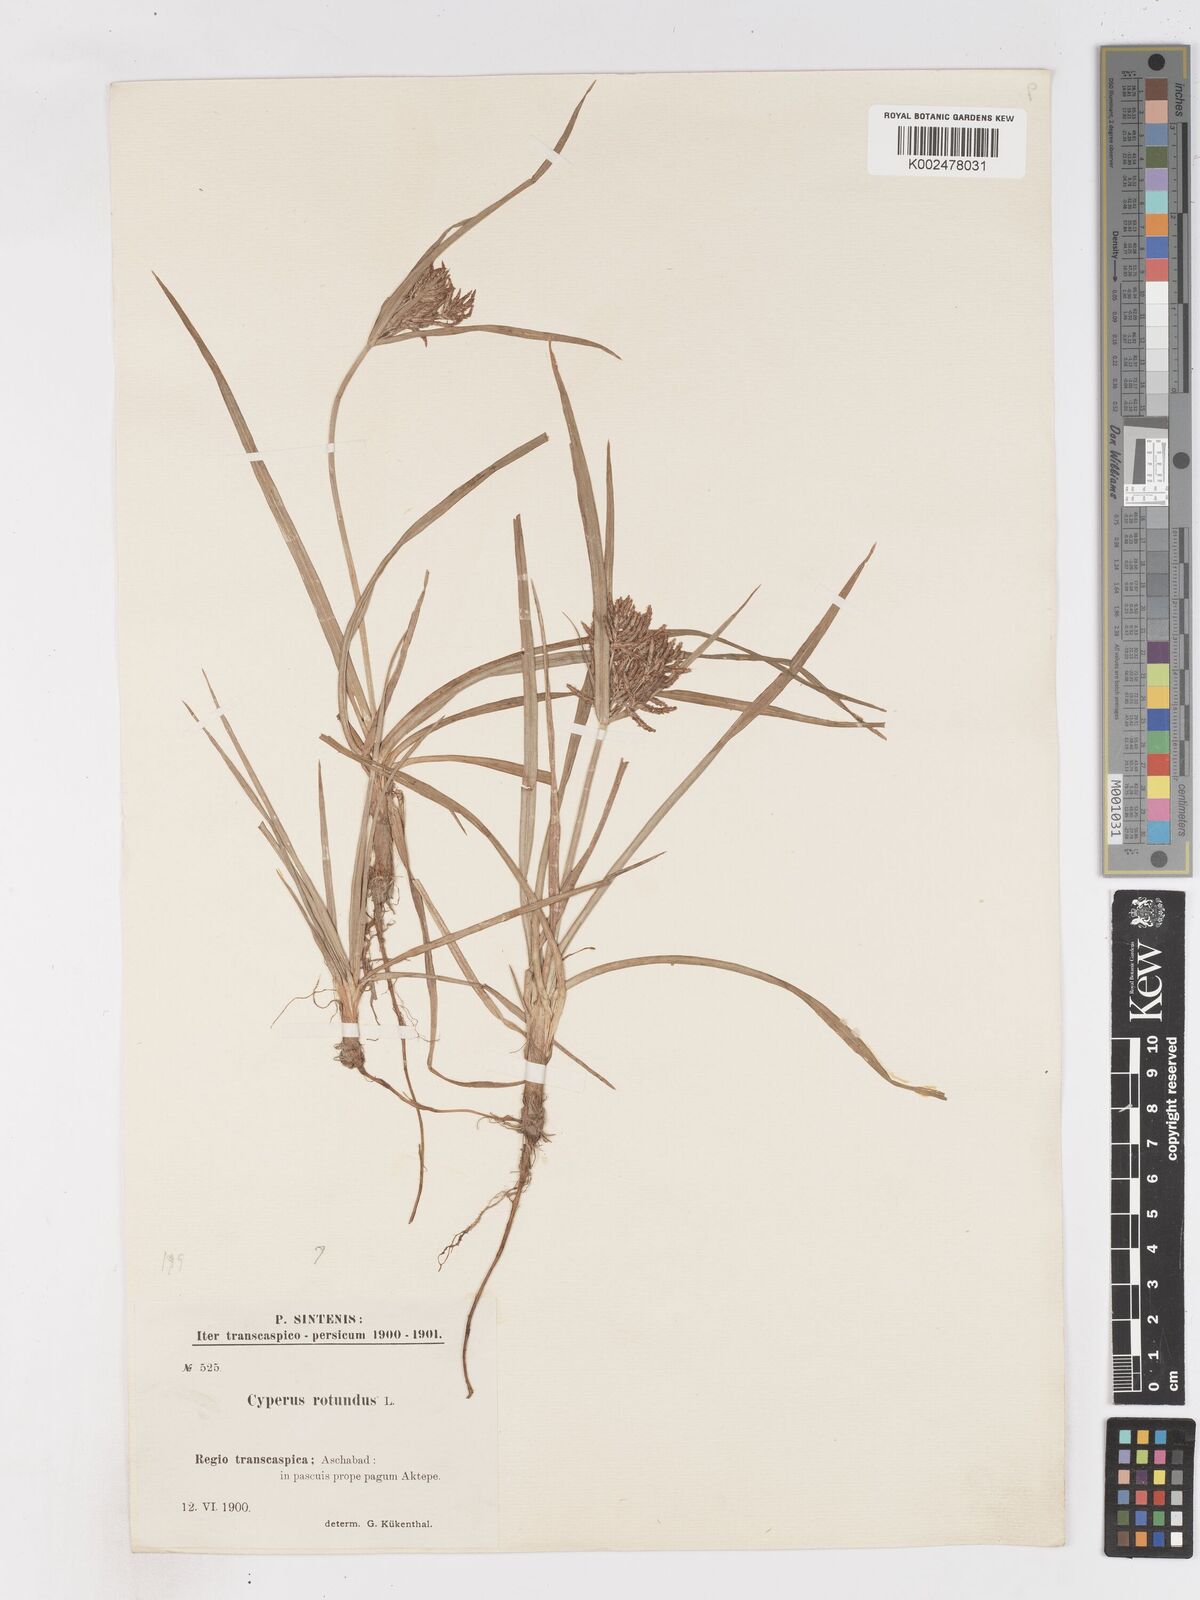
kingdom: Plantae
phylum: Tracheophyta
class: Liliopsida
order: Poales
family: Cyperaceae
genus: Cyperus
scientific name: Cyperus rotundus
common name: Nutgrass
